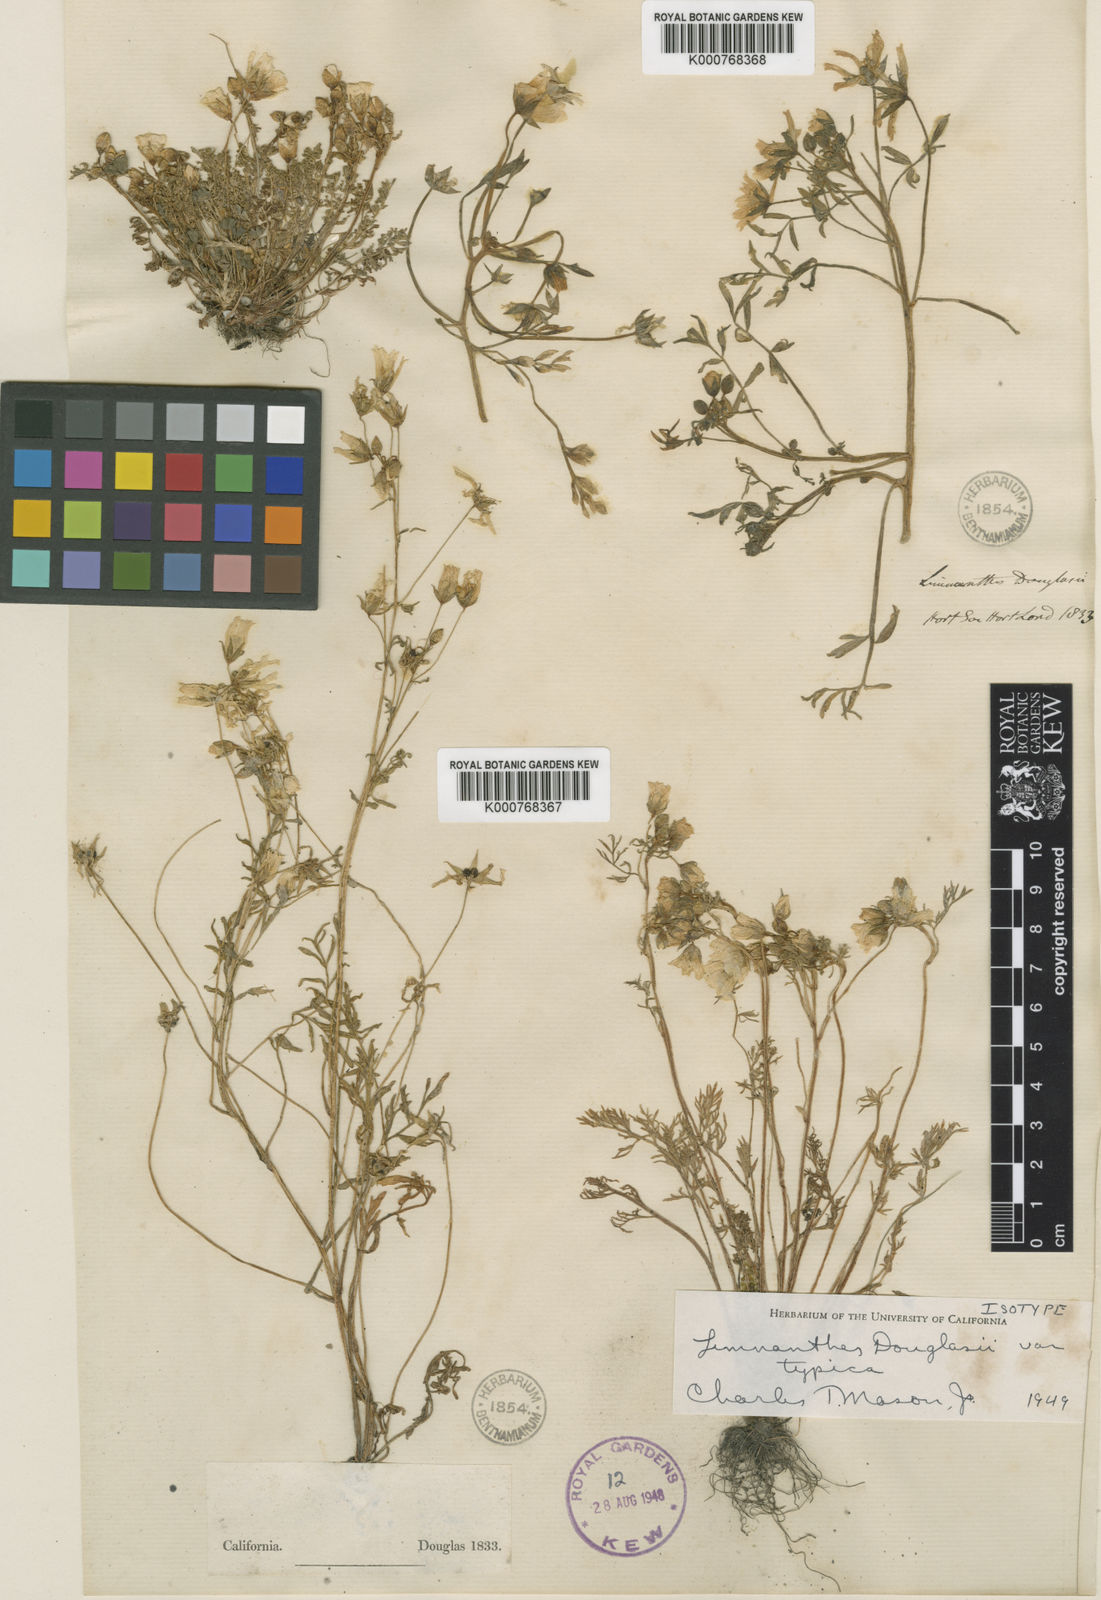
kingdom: Plantae
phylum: Tracheophyta
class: Magnoliopsida
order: Brassicales
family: Limnanthaceae
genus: Limnanthes
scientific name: Limnanthes douglasii
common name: Meadow-foam
